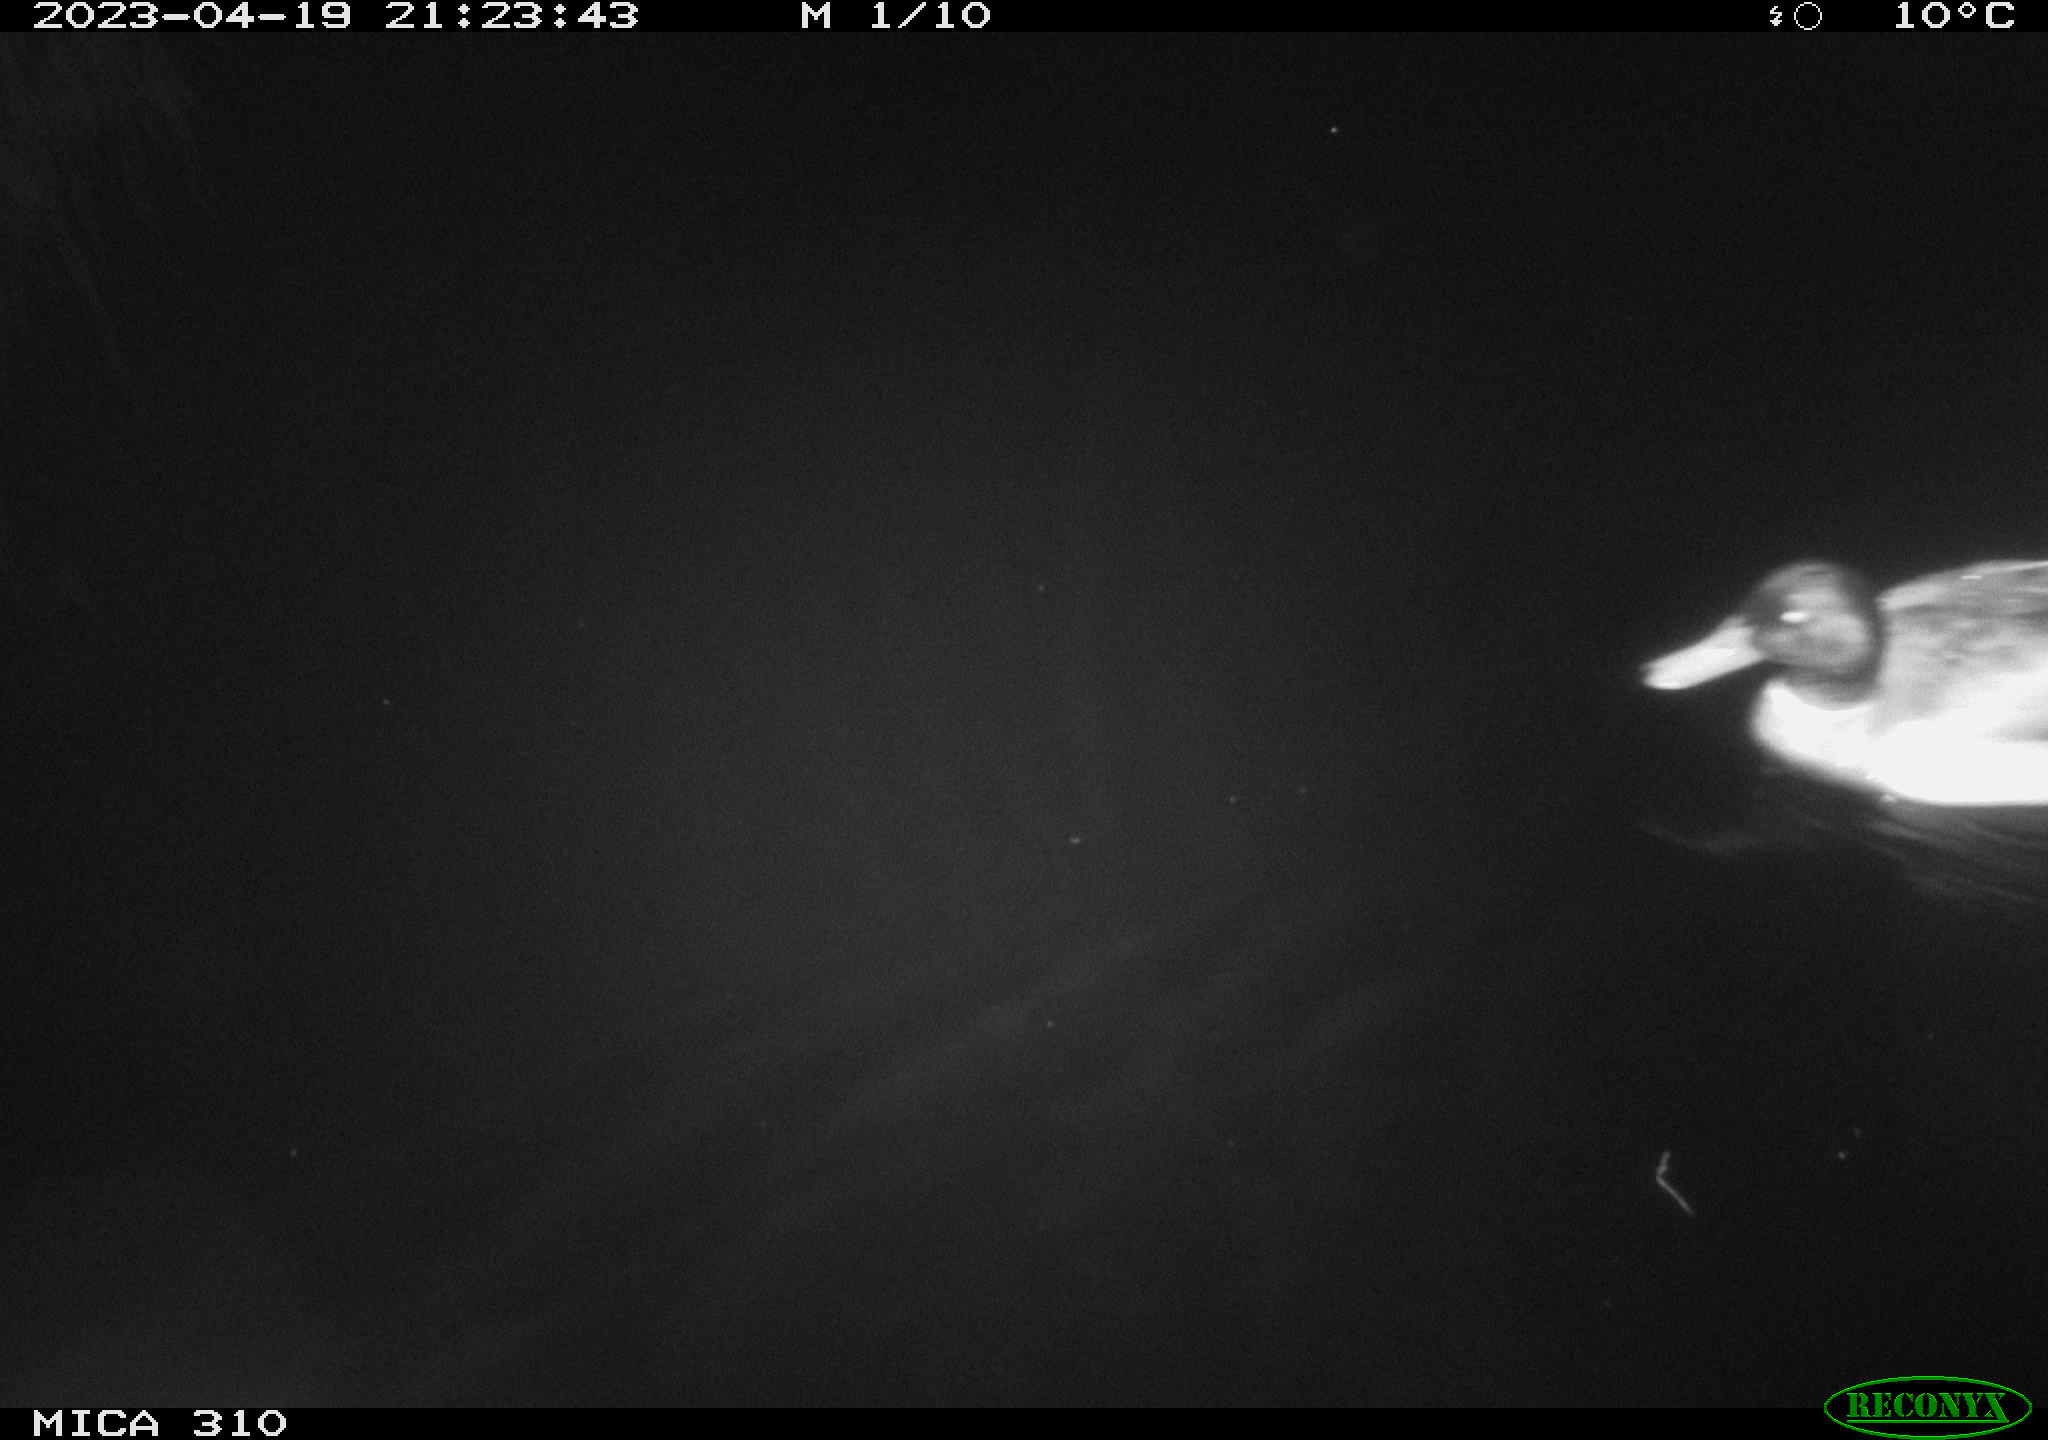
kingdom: Animalia
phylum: Chordata
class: Aves
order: Anseriformes
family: Anatidae
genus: Anas
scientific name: Anas
